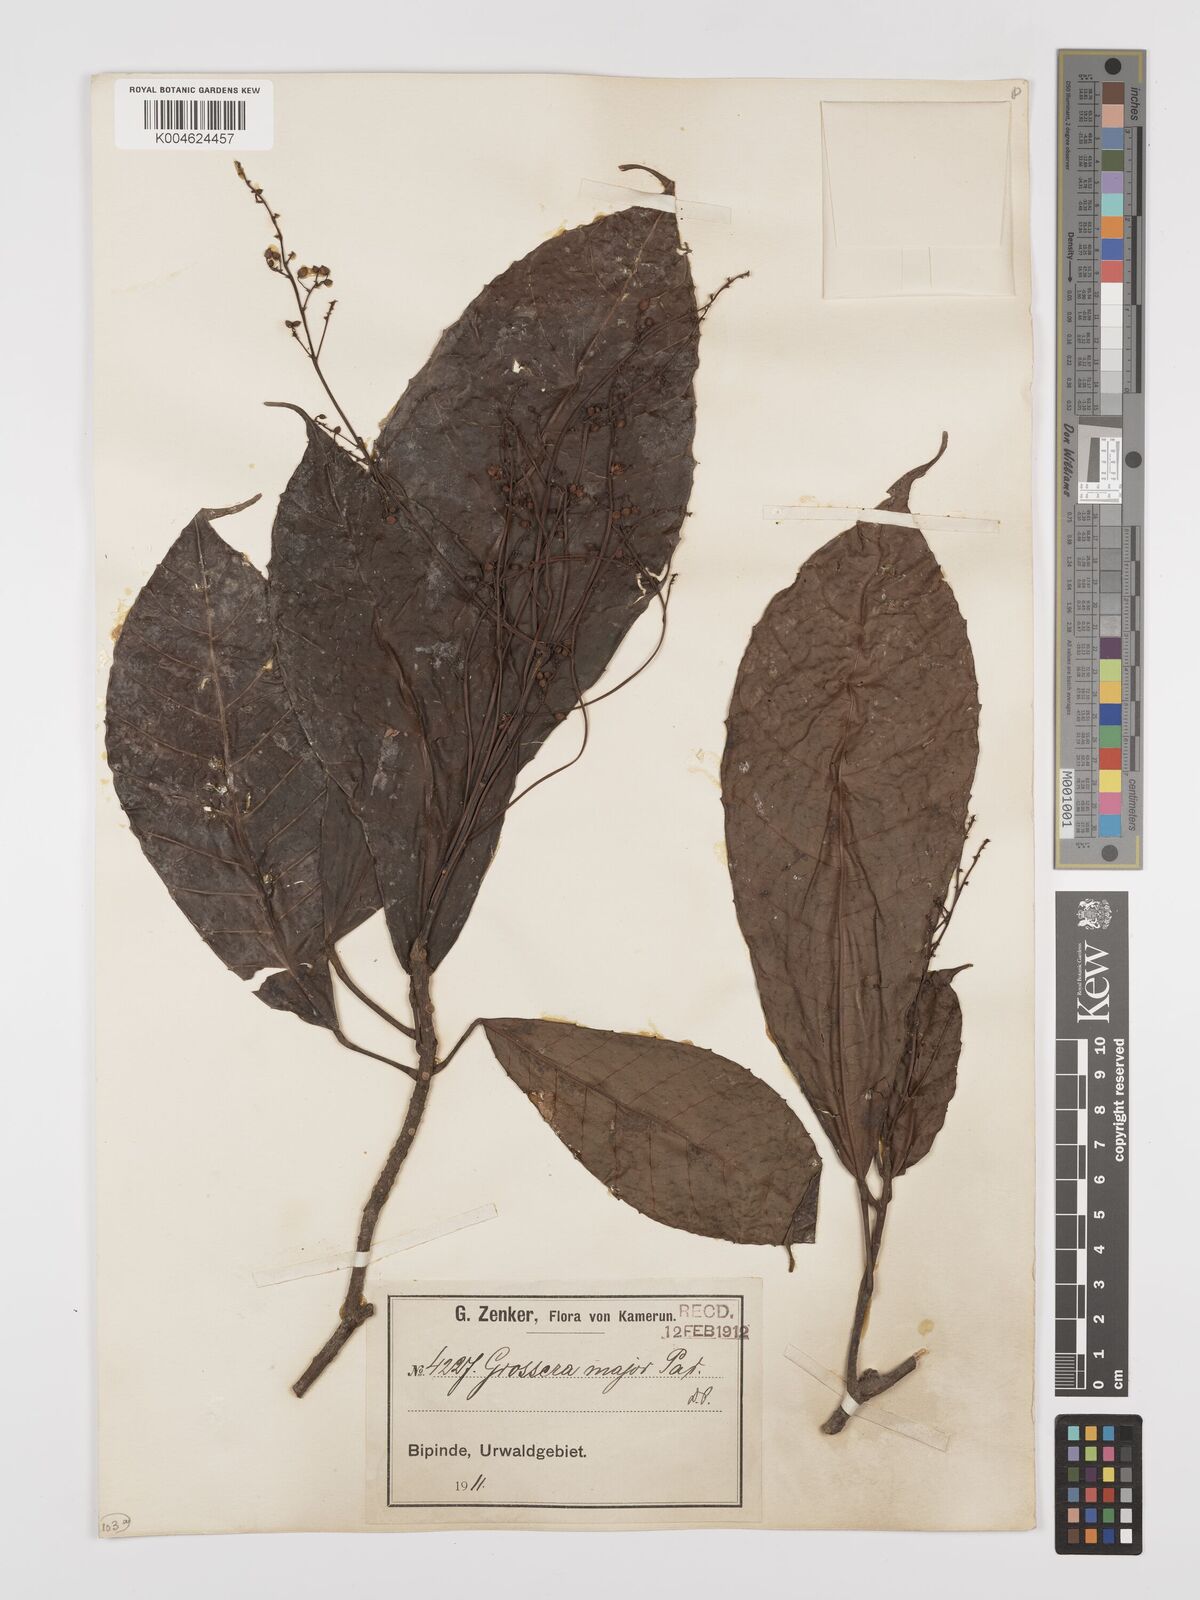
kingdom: Plantae
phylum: Tracheophyta
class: Magnoliopsida
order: Malpighiales
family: Euphorbiaceae
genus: Grossera
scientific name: Grossera major
